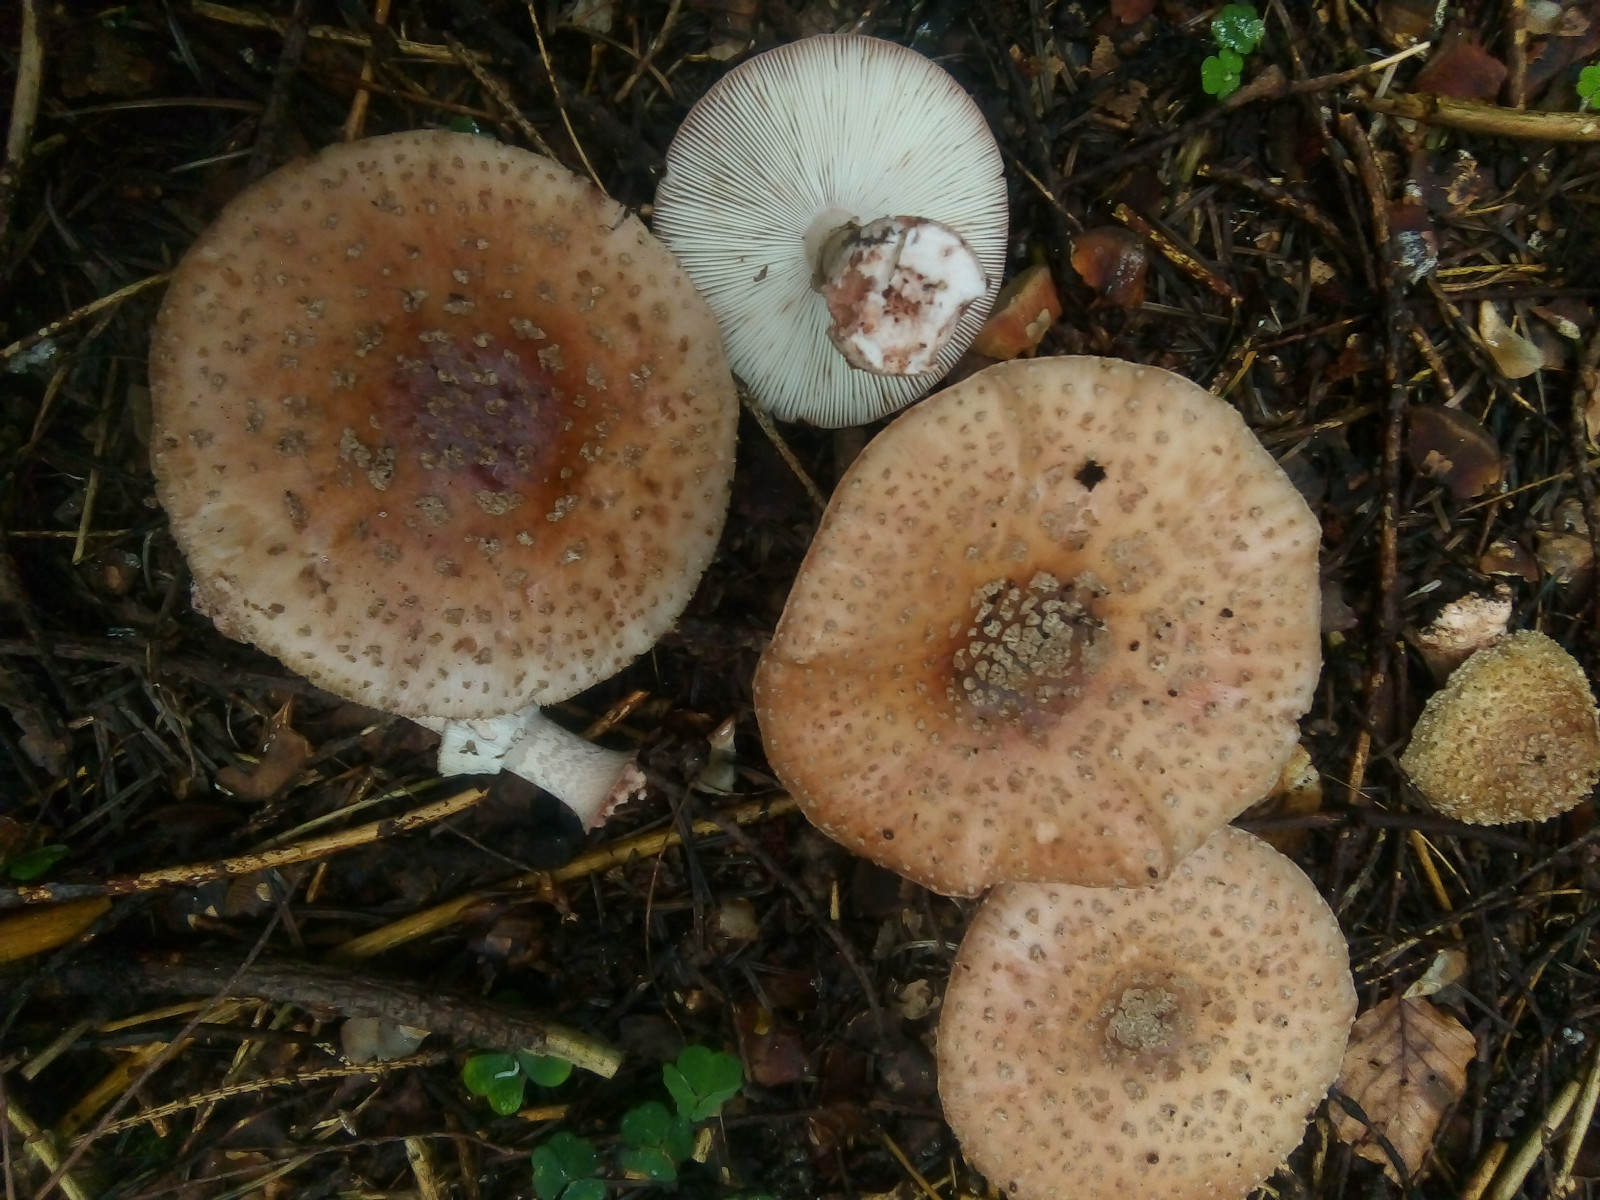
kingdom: Fungi
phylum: Basidiomycota
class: Agaricomycetes
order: Agaricales
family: Amanitaceae
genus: Amanita
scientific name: Amanita rubescens
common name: rødmende fluesvamp
